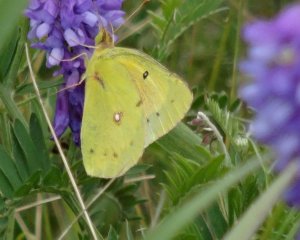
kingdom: Animalia
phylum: Arthropoda
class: Insecta
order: Lepidoptera
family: Pieridae
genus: Colias
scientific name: Colias eurytheme
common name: Orange Sulphur
